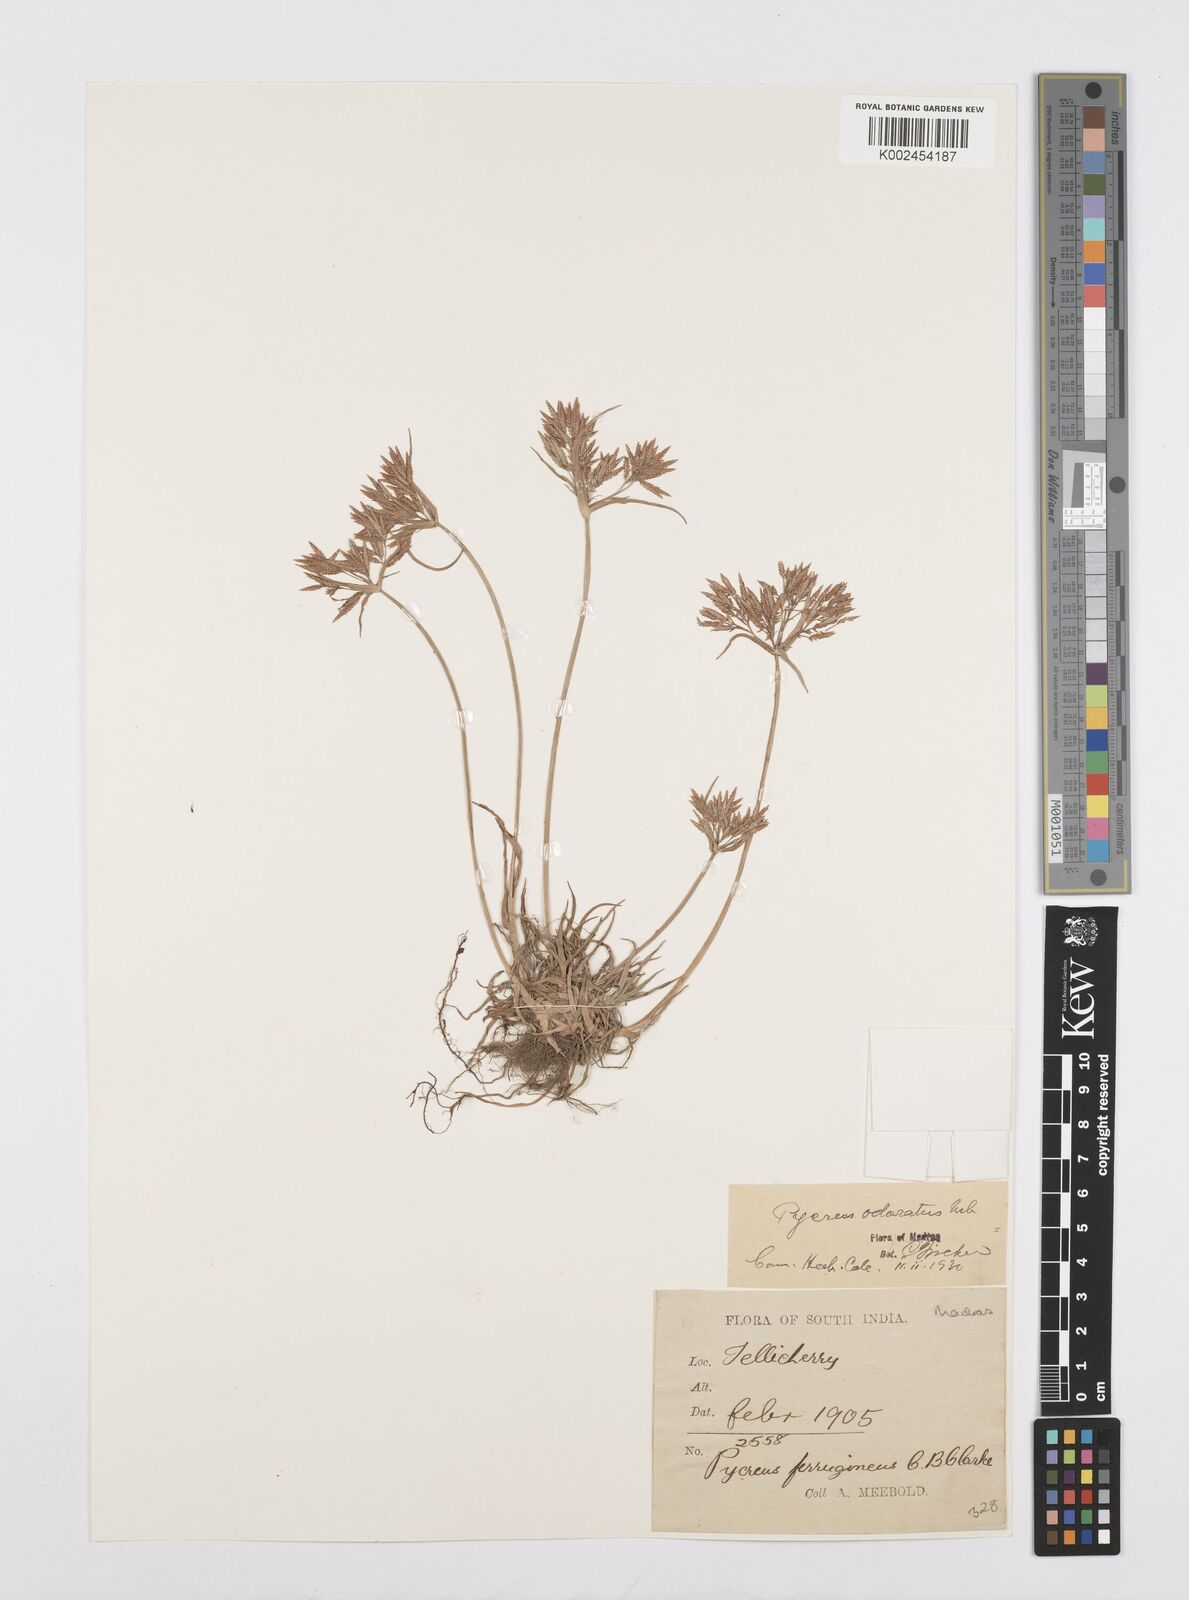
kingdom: Plantae
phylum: Tracheophyta
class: Liliopsida
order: Poales
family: Cyperaceae
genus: Cyperus
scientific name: Cyperus polystachyos
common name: Bunchy flat sedge
